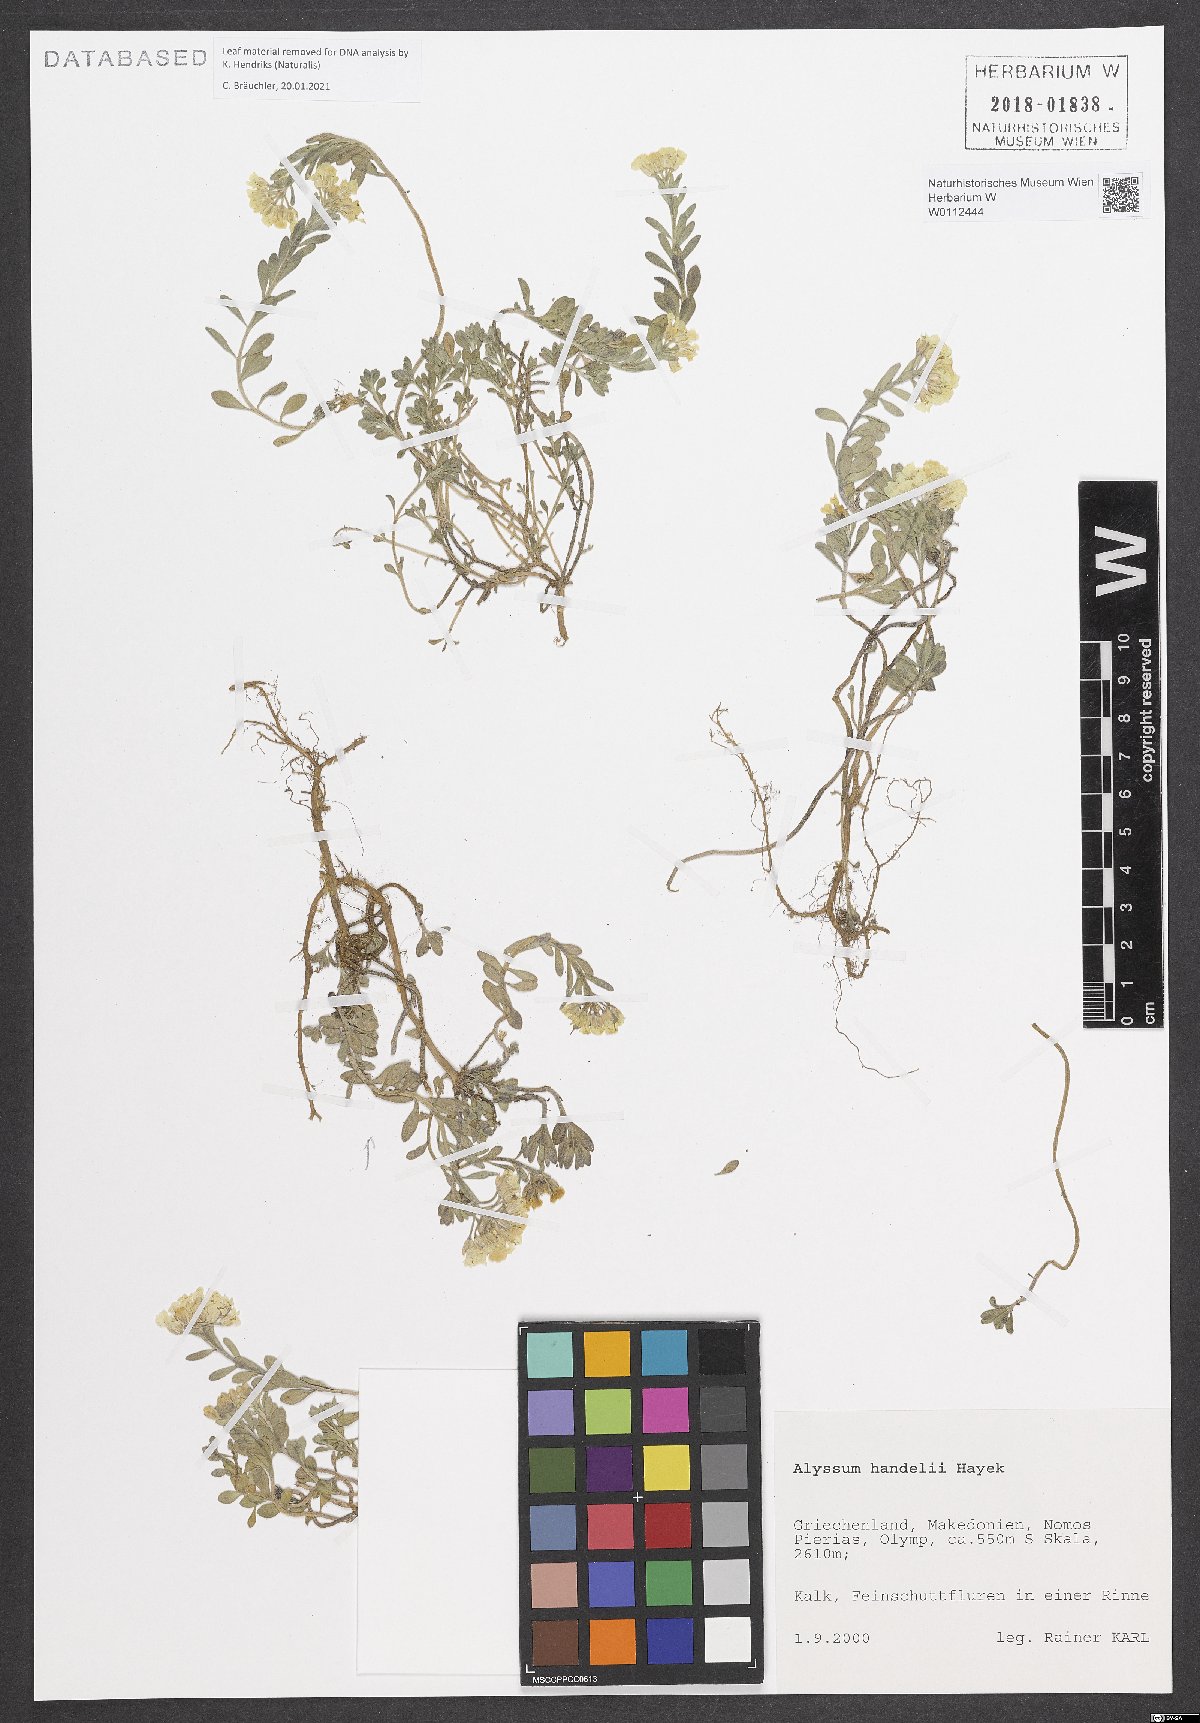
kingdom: Plantae
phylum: Tracheophyta
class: Magnoliopsida
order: Brassicales
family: Brassicaceae
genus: Alyssum
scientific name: Alyssum handelii
